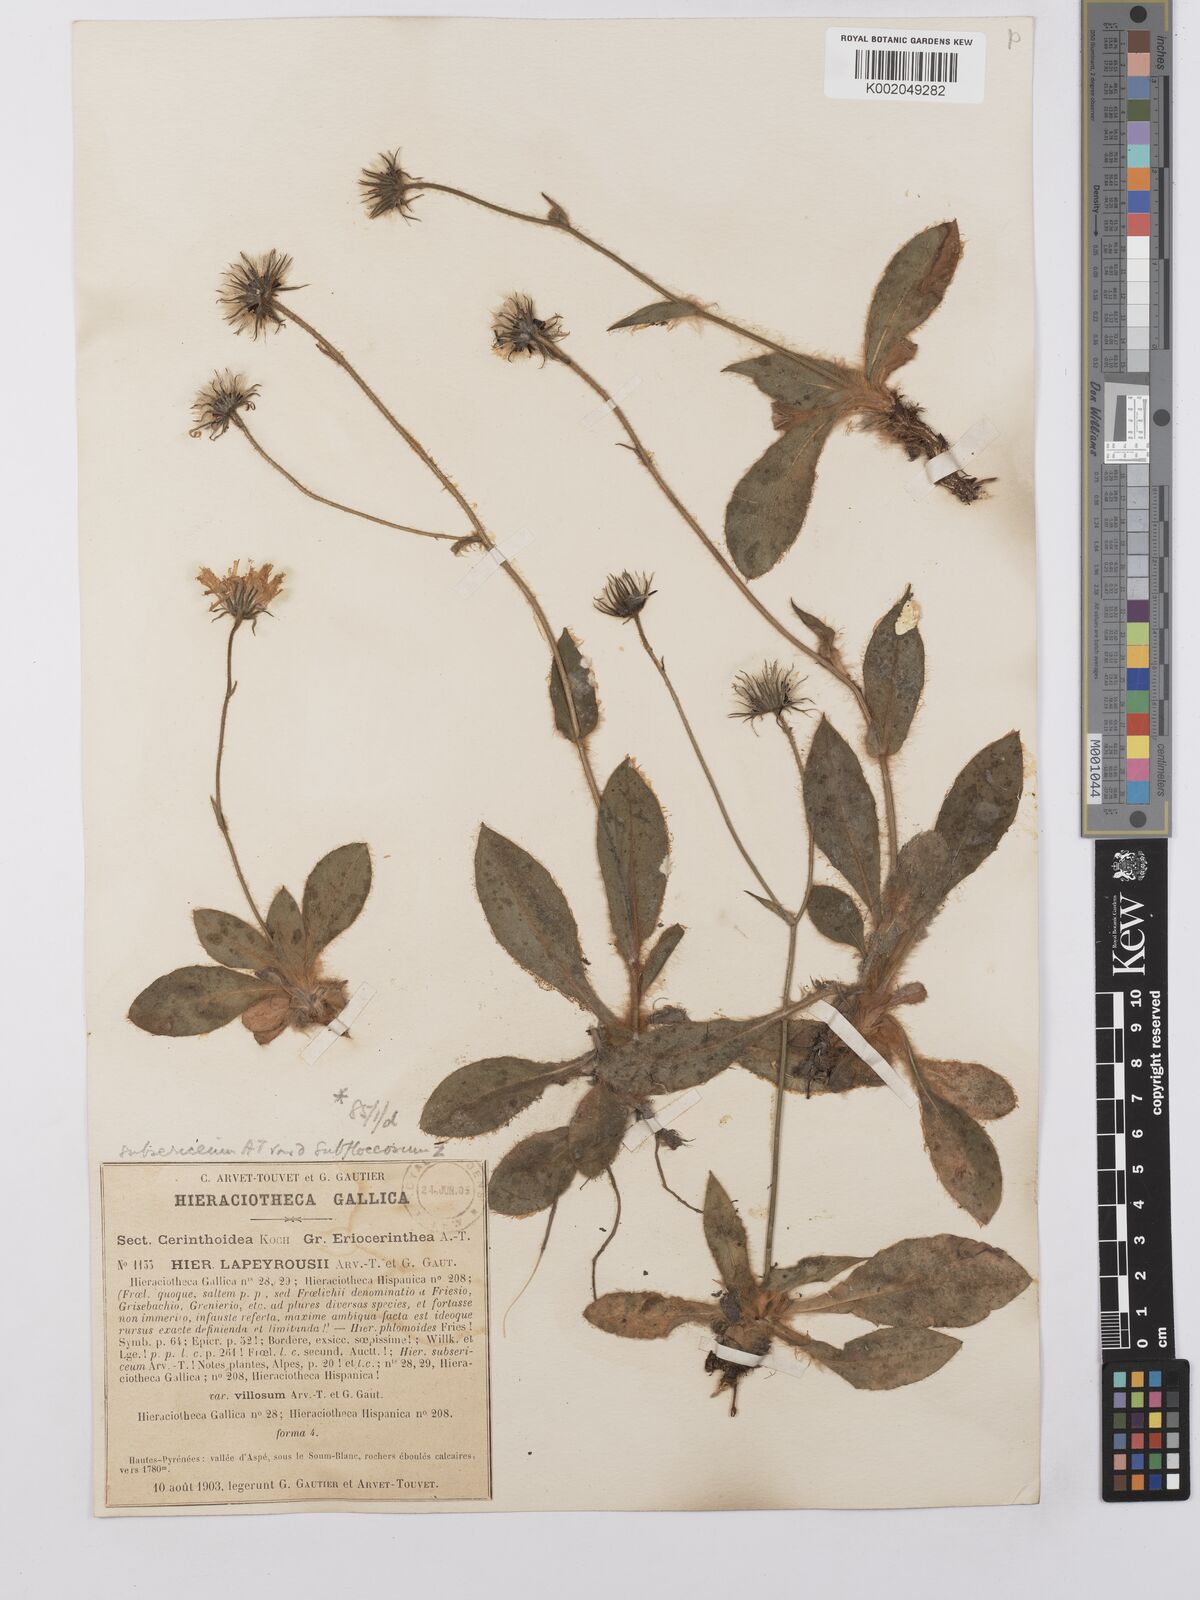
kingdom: Plantae
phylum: Tracheophyta
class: Magnoliopsida
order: Asterales
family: Asteraceae
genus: Hieracium
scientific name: Hieracium
